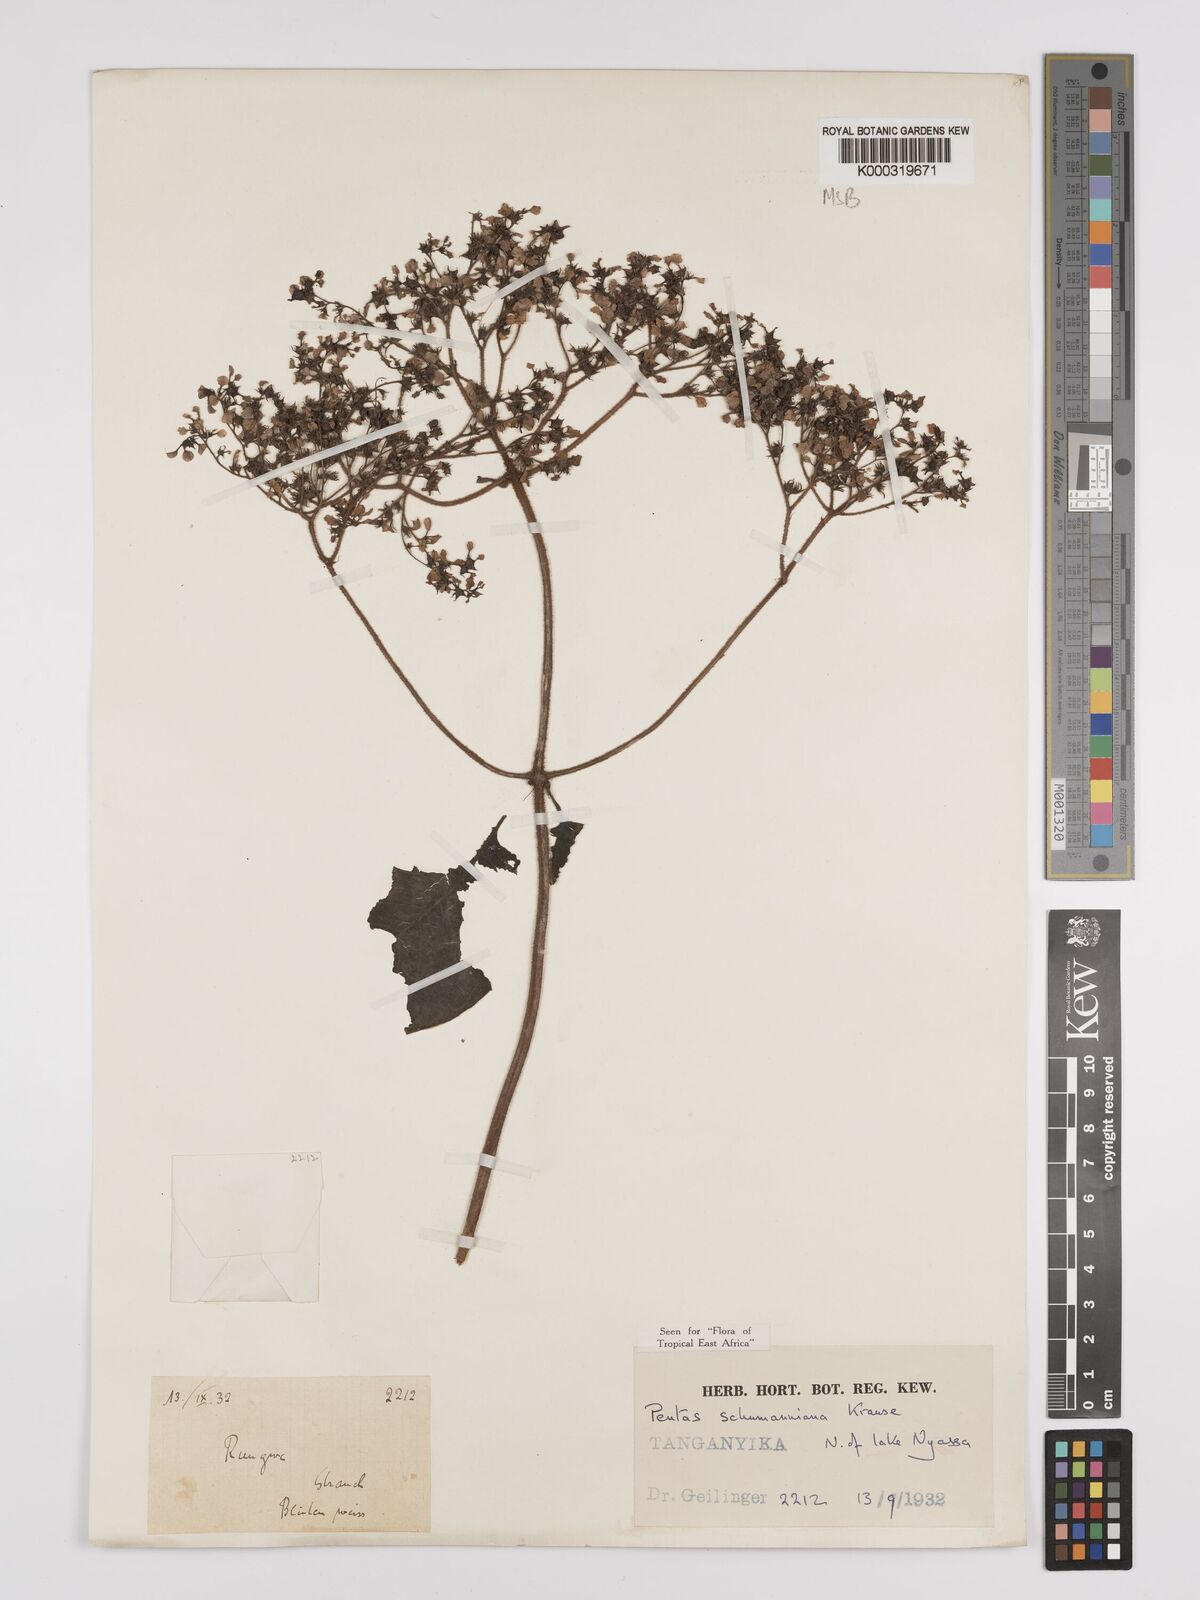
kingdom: Plantae
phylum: Tracheophyta
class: Magnoliopsida
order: Gentianales
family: Rubiaceae
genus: Phyllopentas
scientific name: Phyllopentas schumanniana
